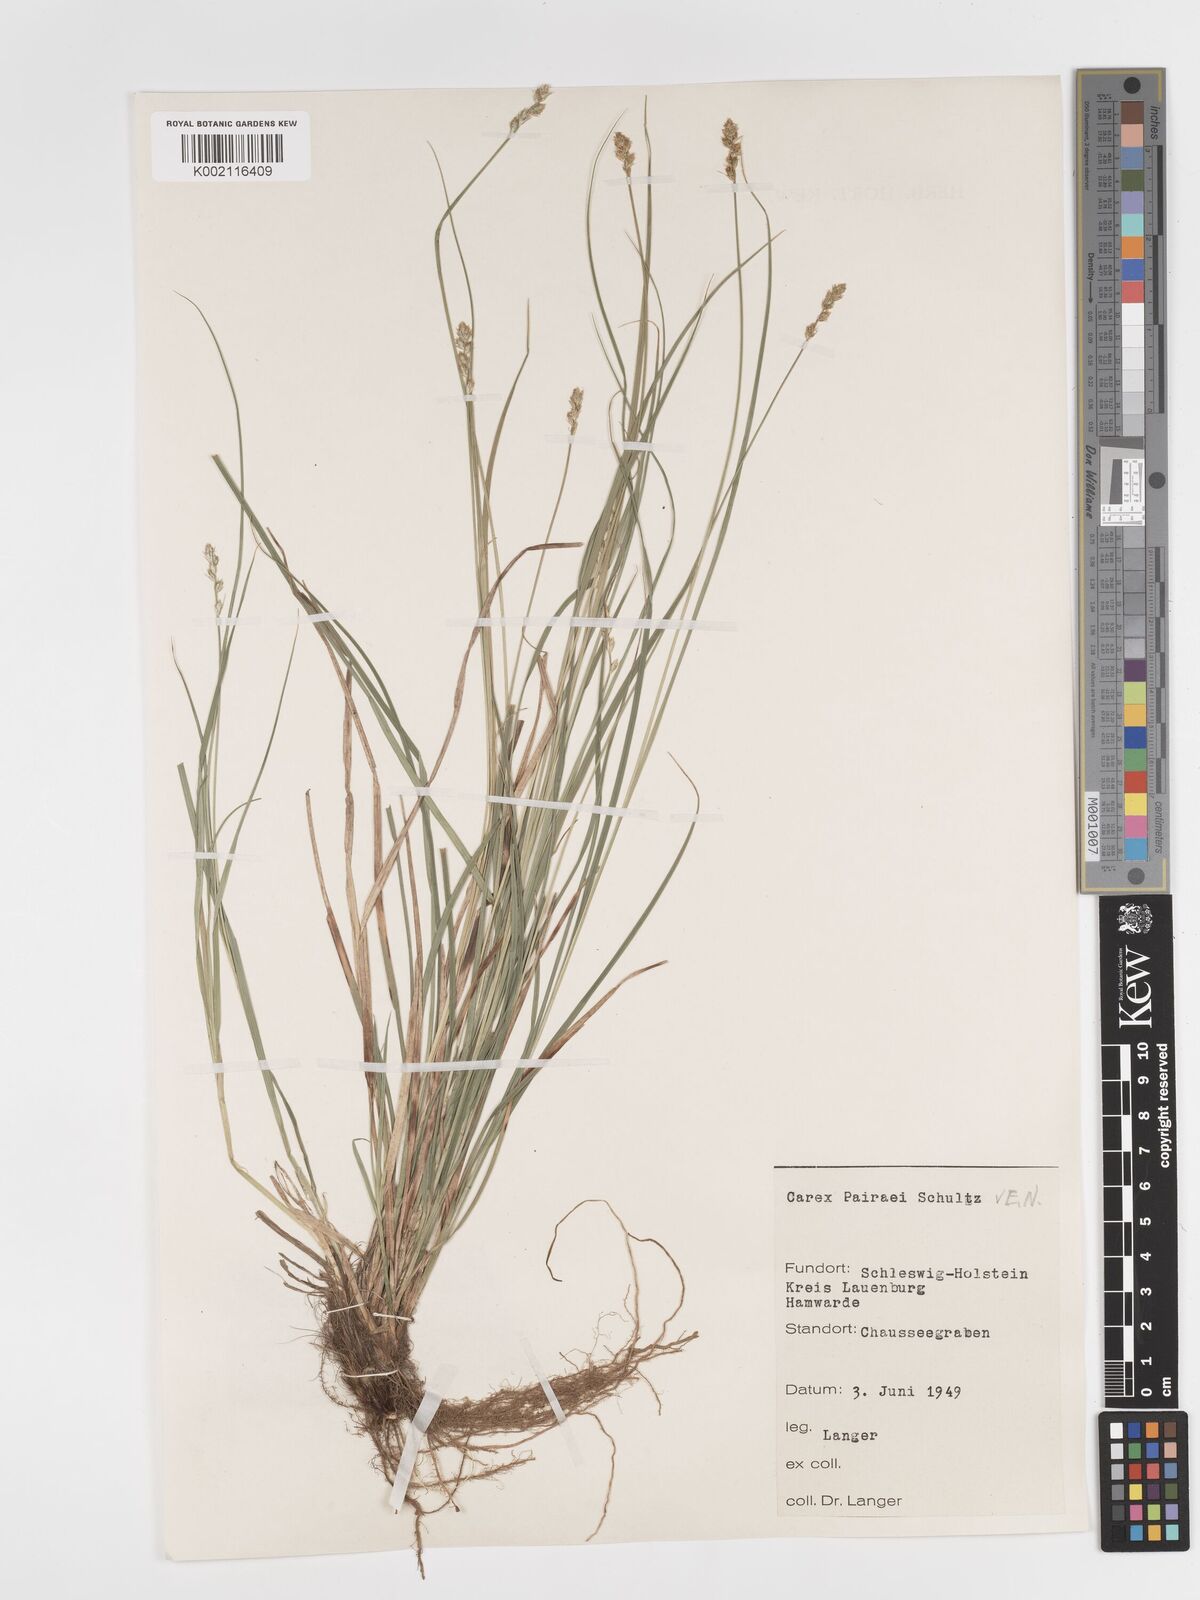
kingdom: Plantae
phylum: Tracheophyta
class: Liliopsida
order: Poales
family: Cyperaceae
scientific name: Cyperaceae
